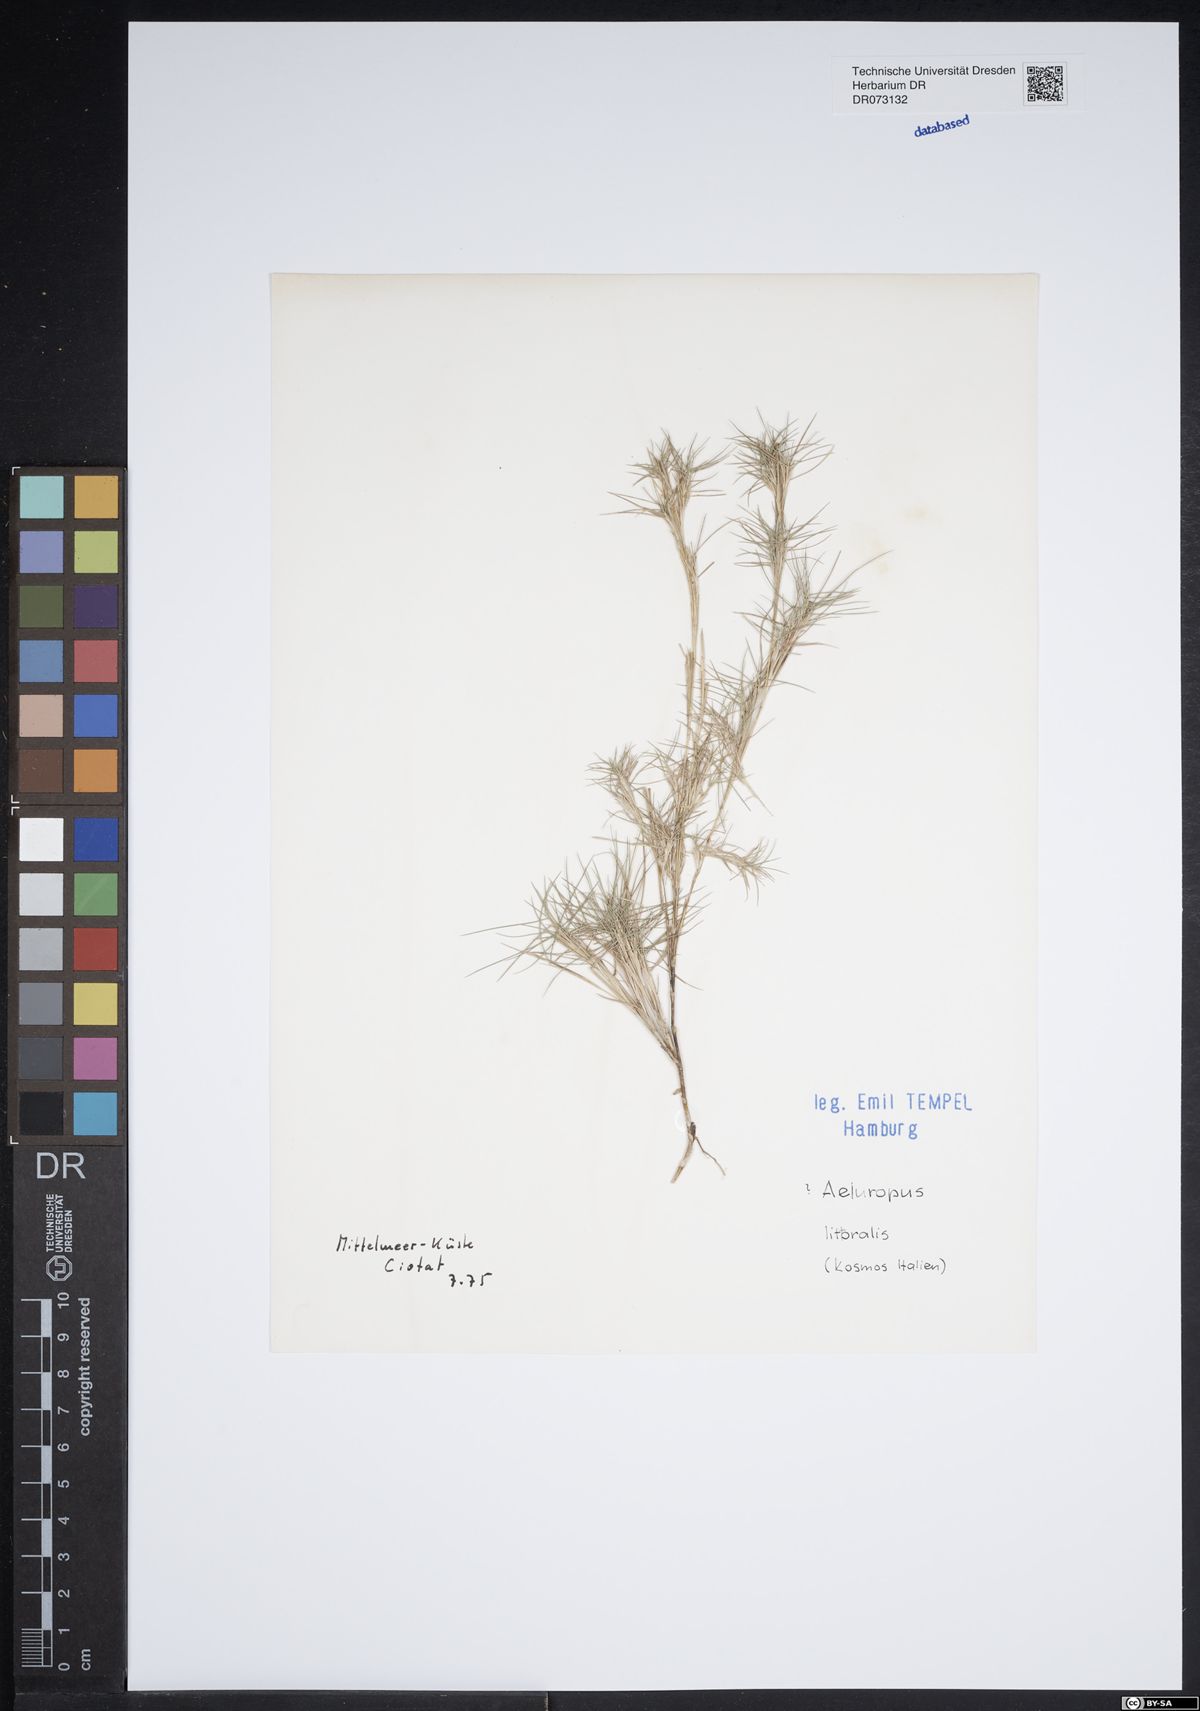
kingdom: Plantae
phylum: Tracheophyta
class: Liliopsida
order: Poales
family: Poaceae
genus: Aeluropus
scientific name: Aeluropus littoralis
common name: Indian walnut
